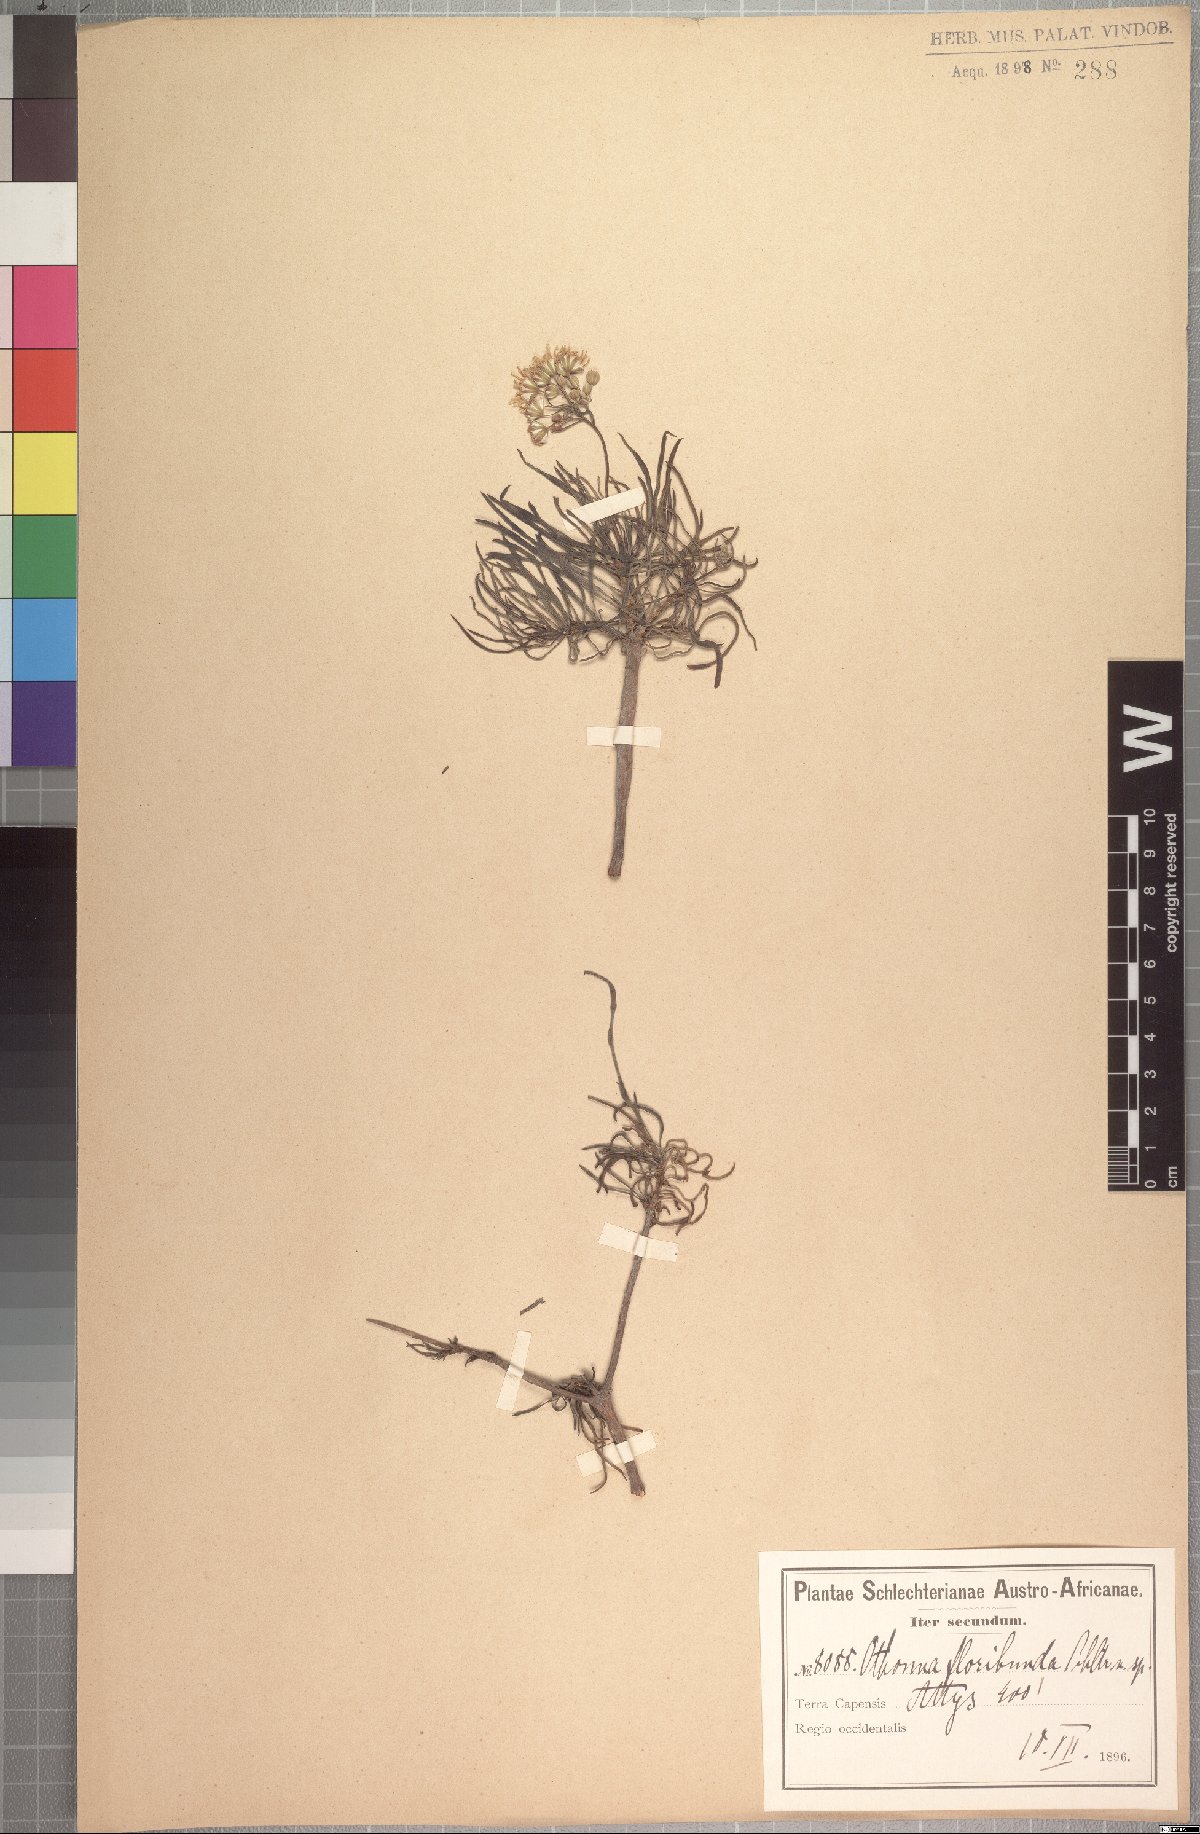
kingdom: Plantae
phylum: Tracheophyta
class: Magnoliopsida
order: Asterales
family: Asteraceae
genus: Crassothonna
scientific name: Crassothonna floribunda
